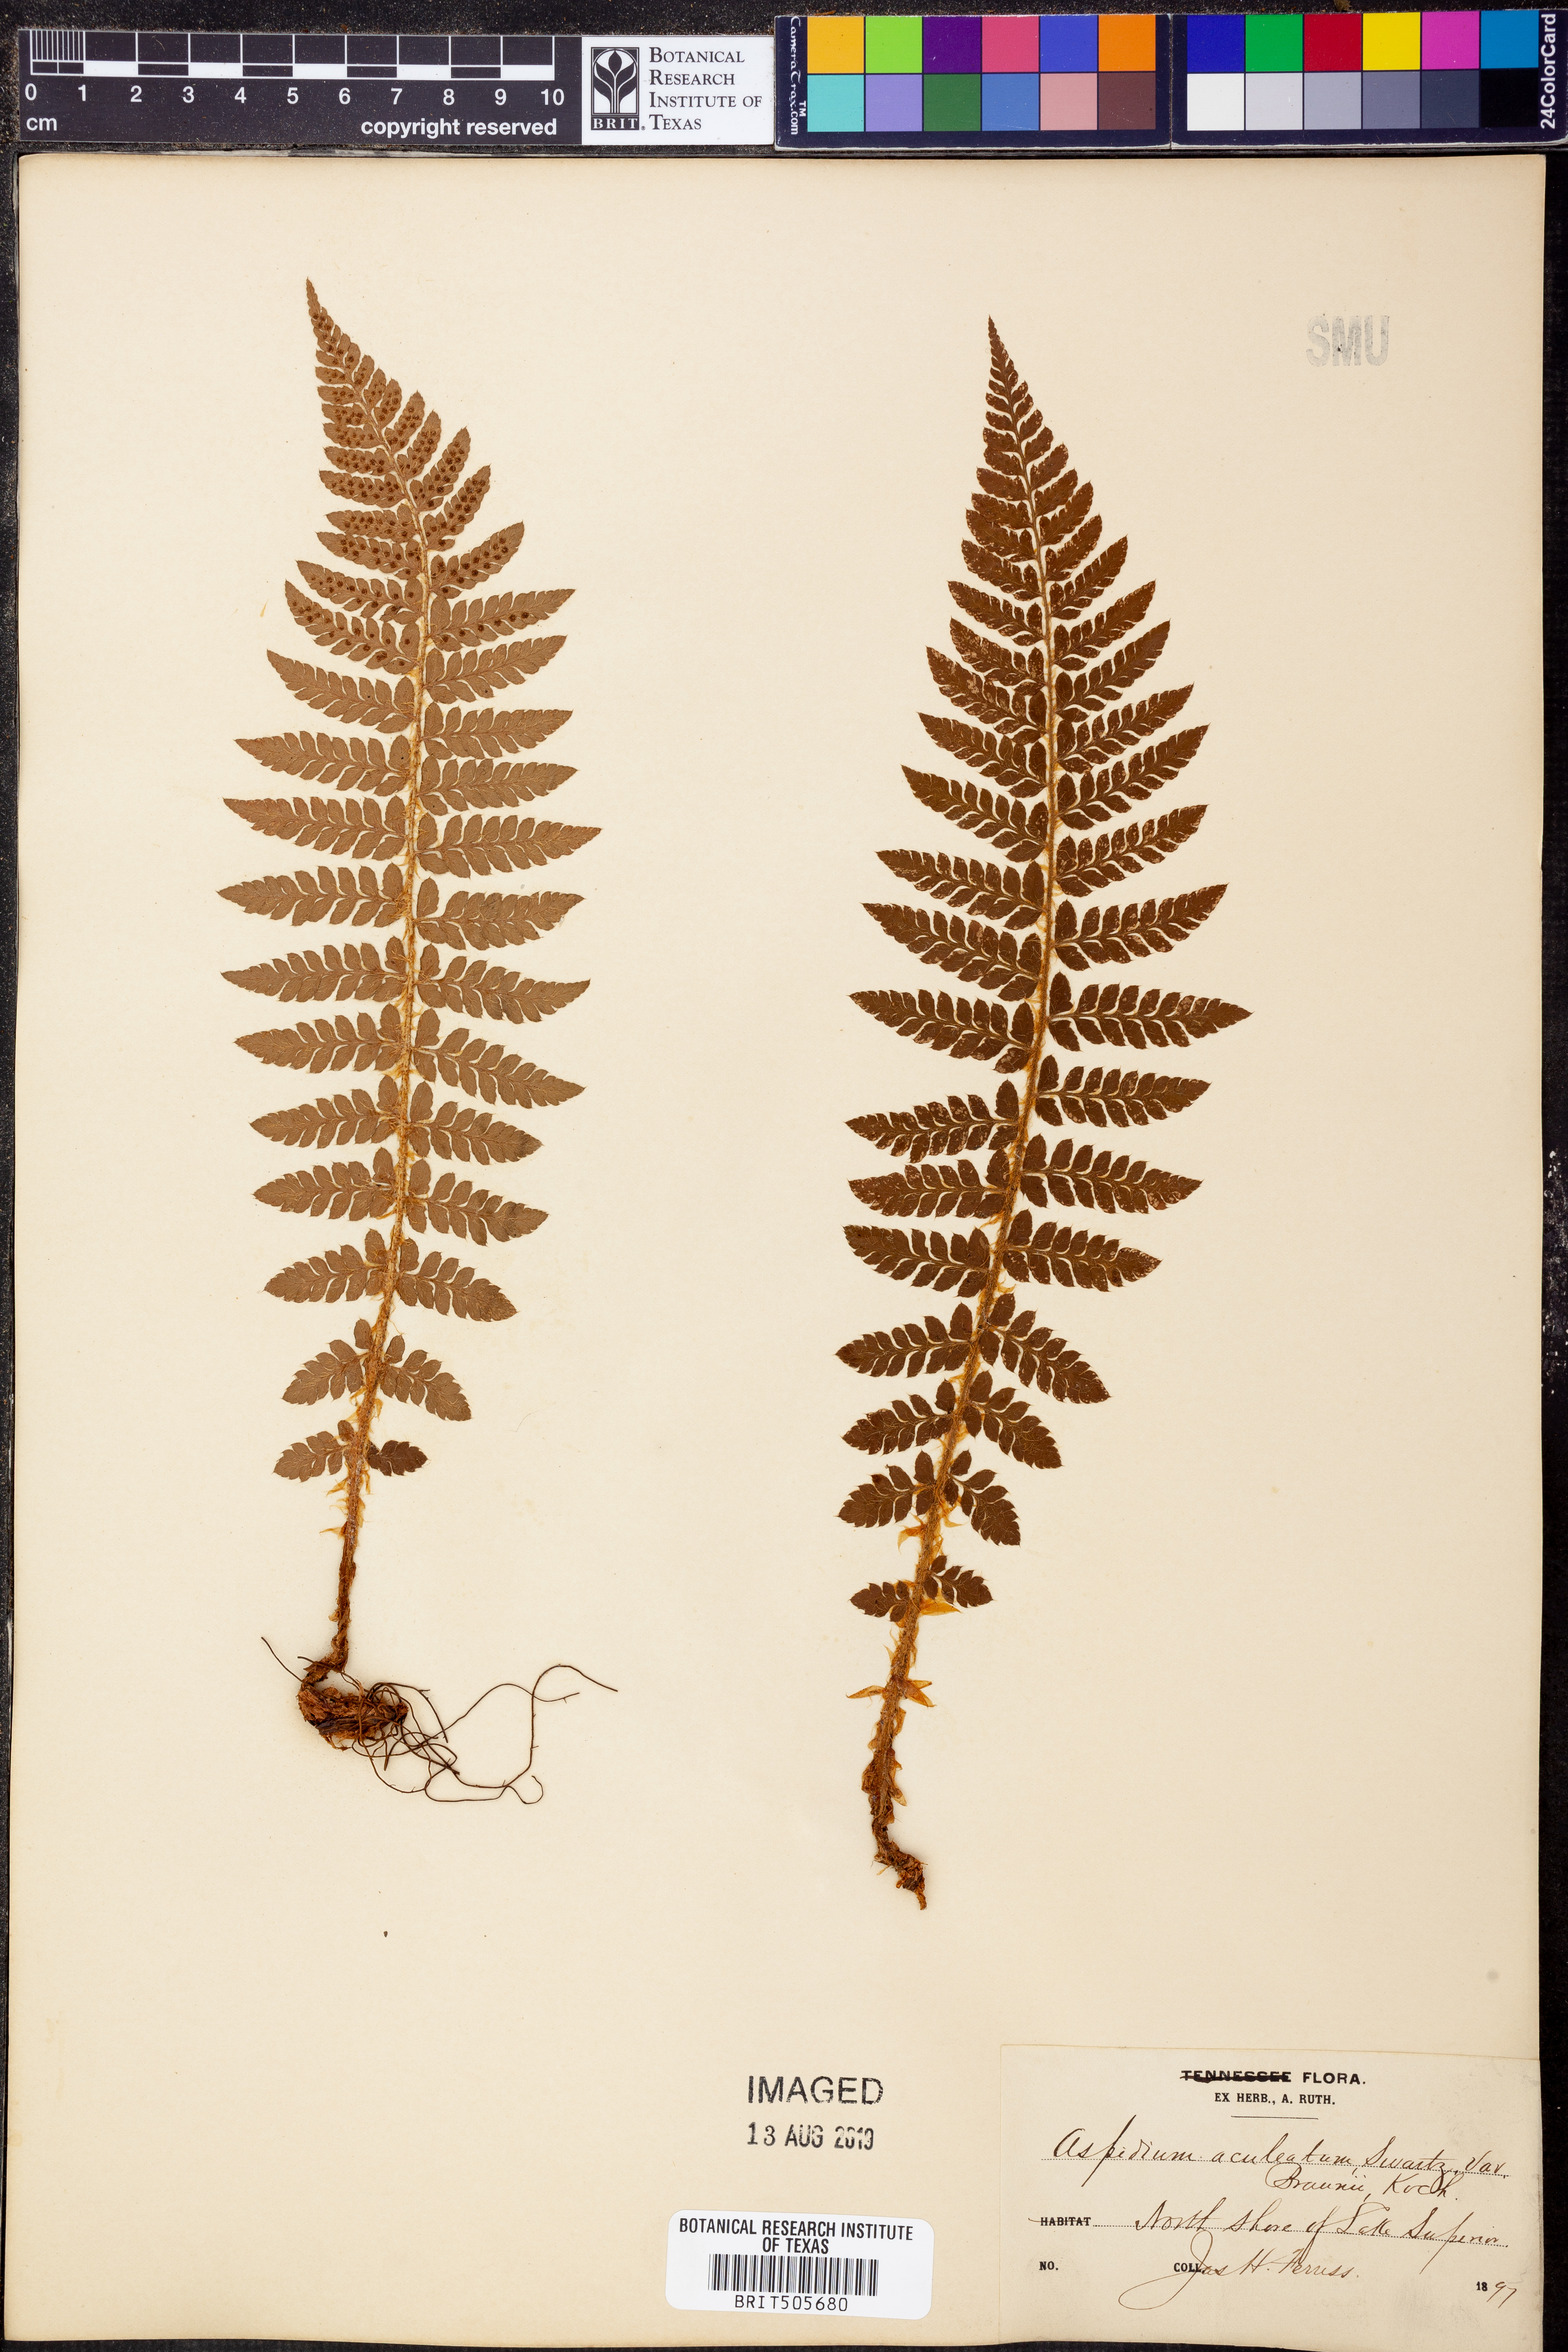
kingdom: Plantae
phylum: Tracheophyta
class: Polypodiopsida
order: Polypodiales
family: Dryopteridaceae
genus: Polystichum
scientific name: Polystichum aculeatum
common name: Hard shield-fern
